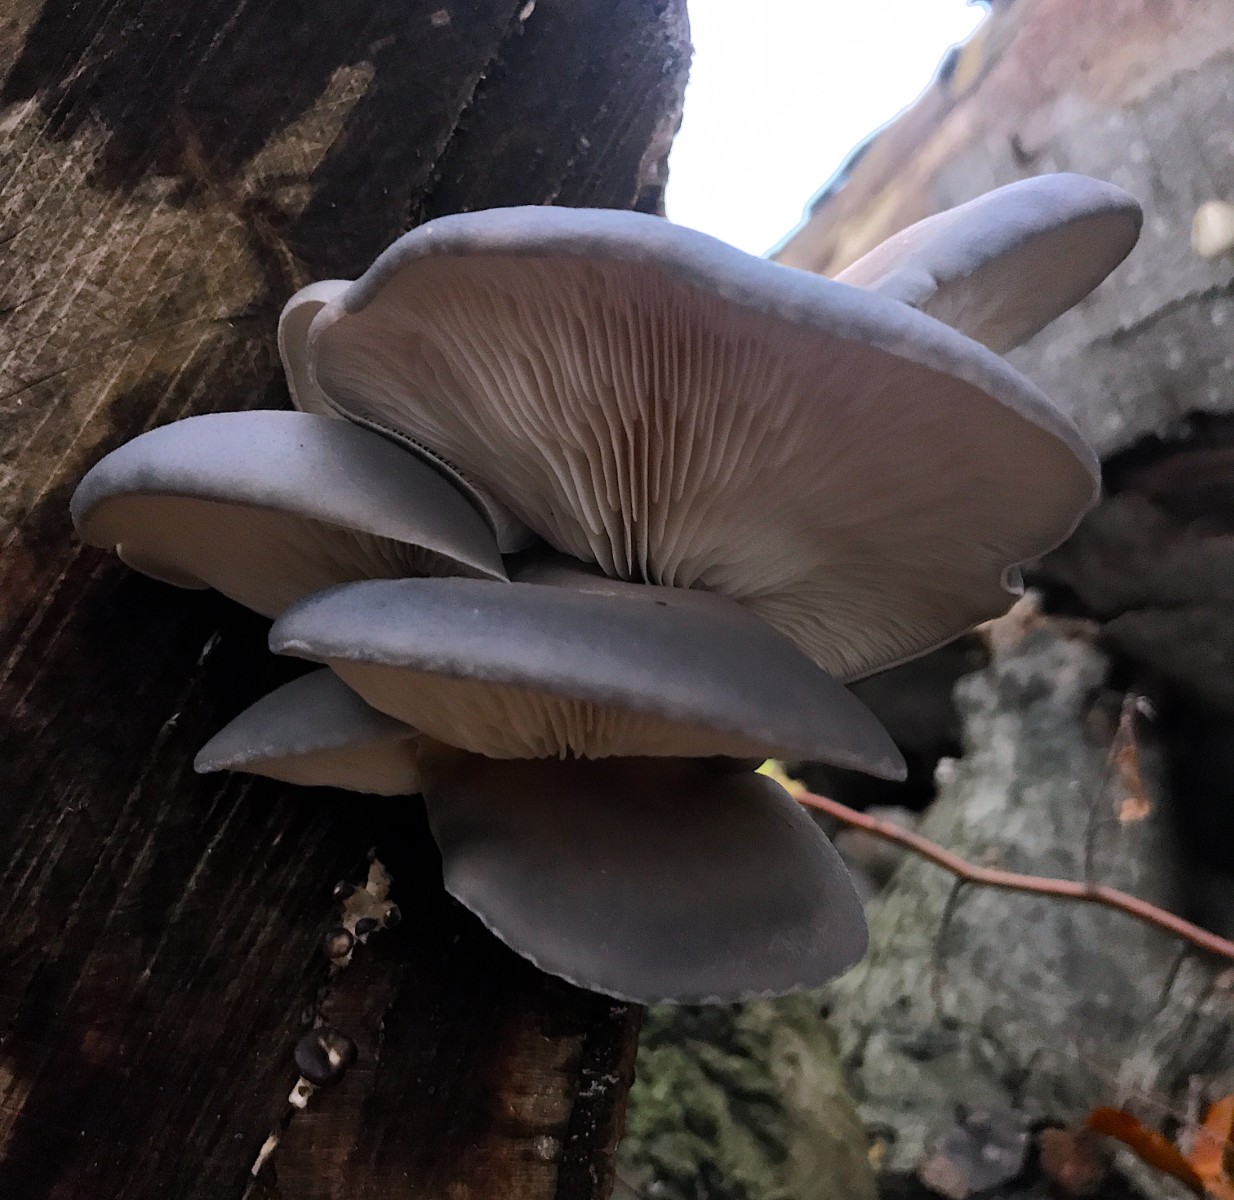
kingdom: Fungi
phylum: Basidiomycota
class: Agaricomycetes
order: Agaricales
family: Pleurotaceae
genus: Pleurotus
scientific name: Pleurotus ostreatus
